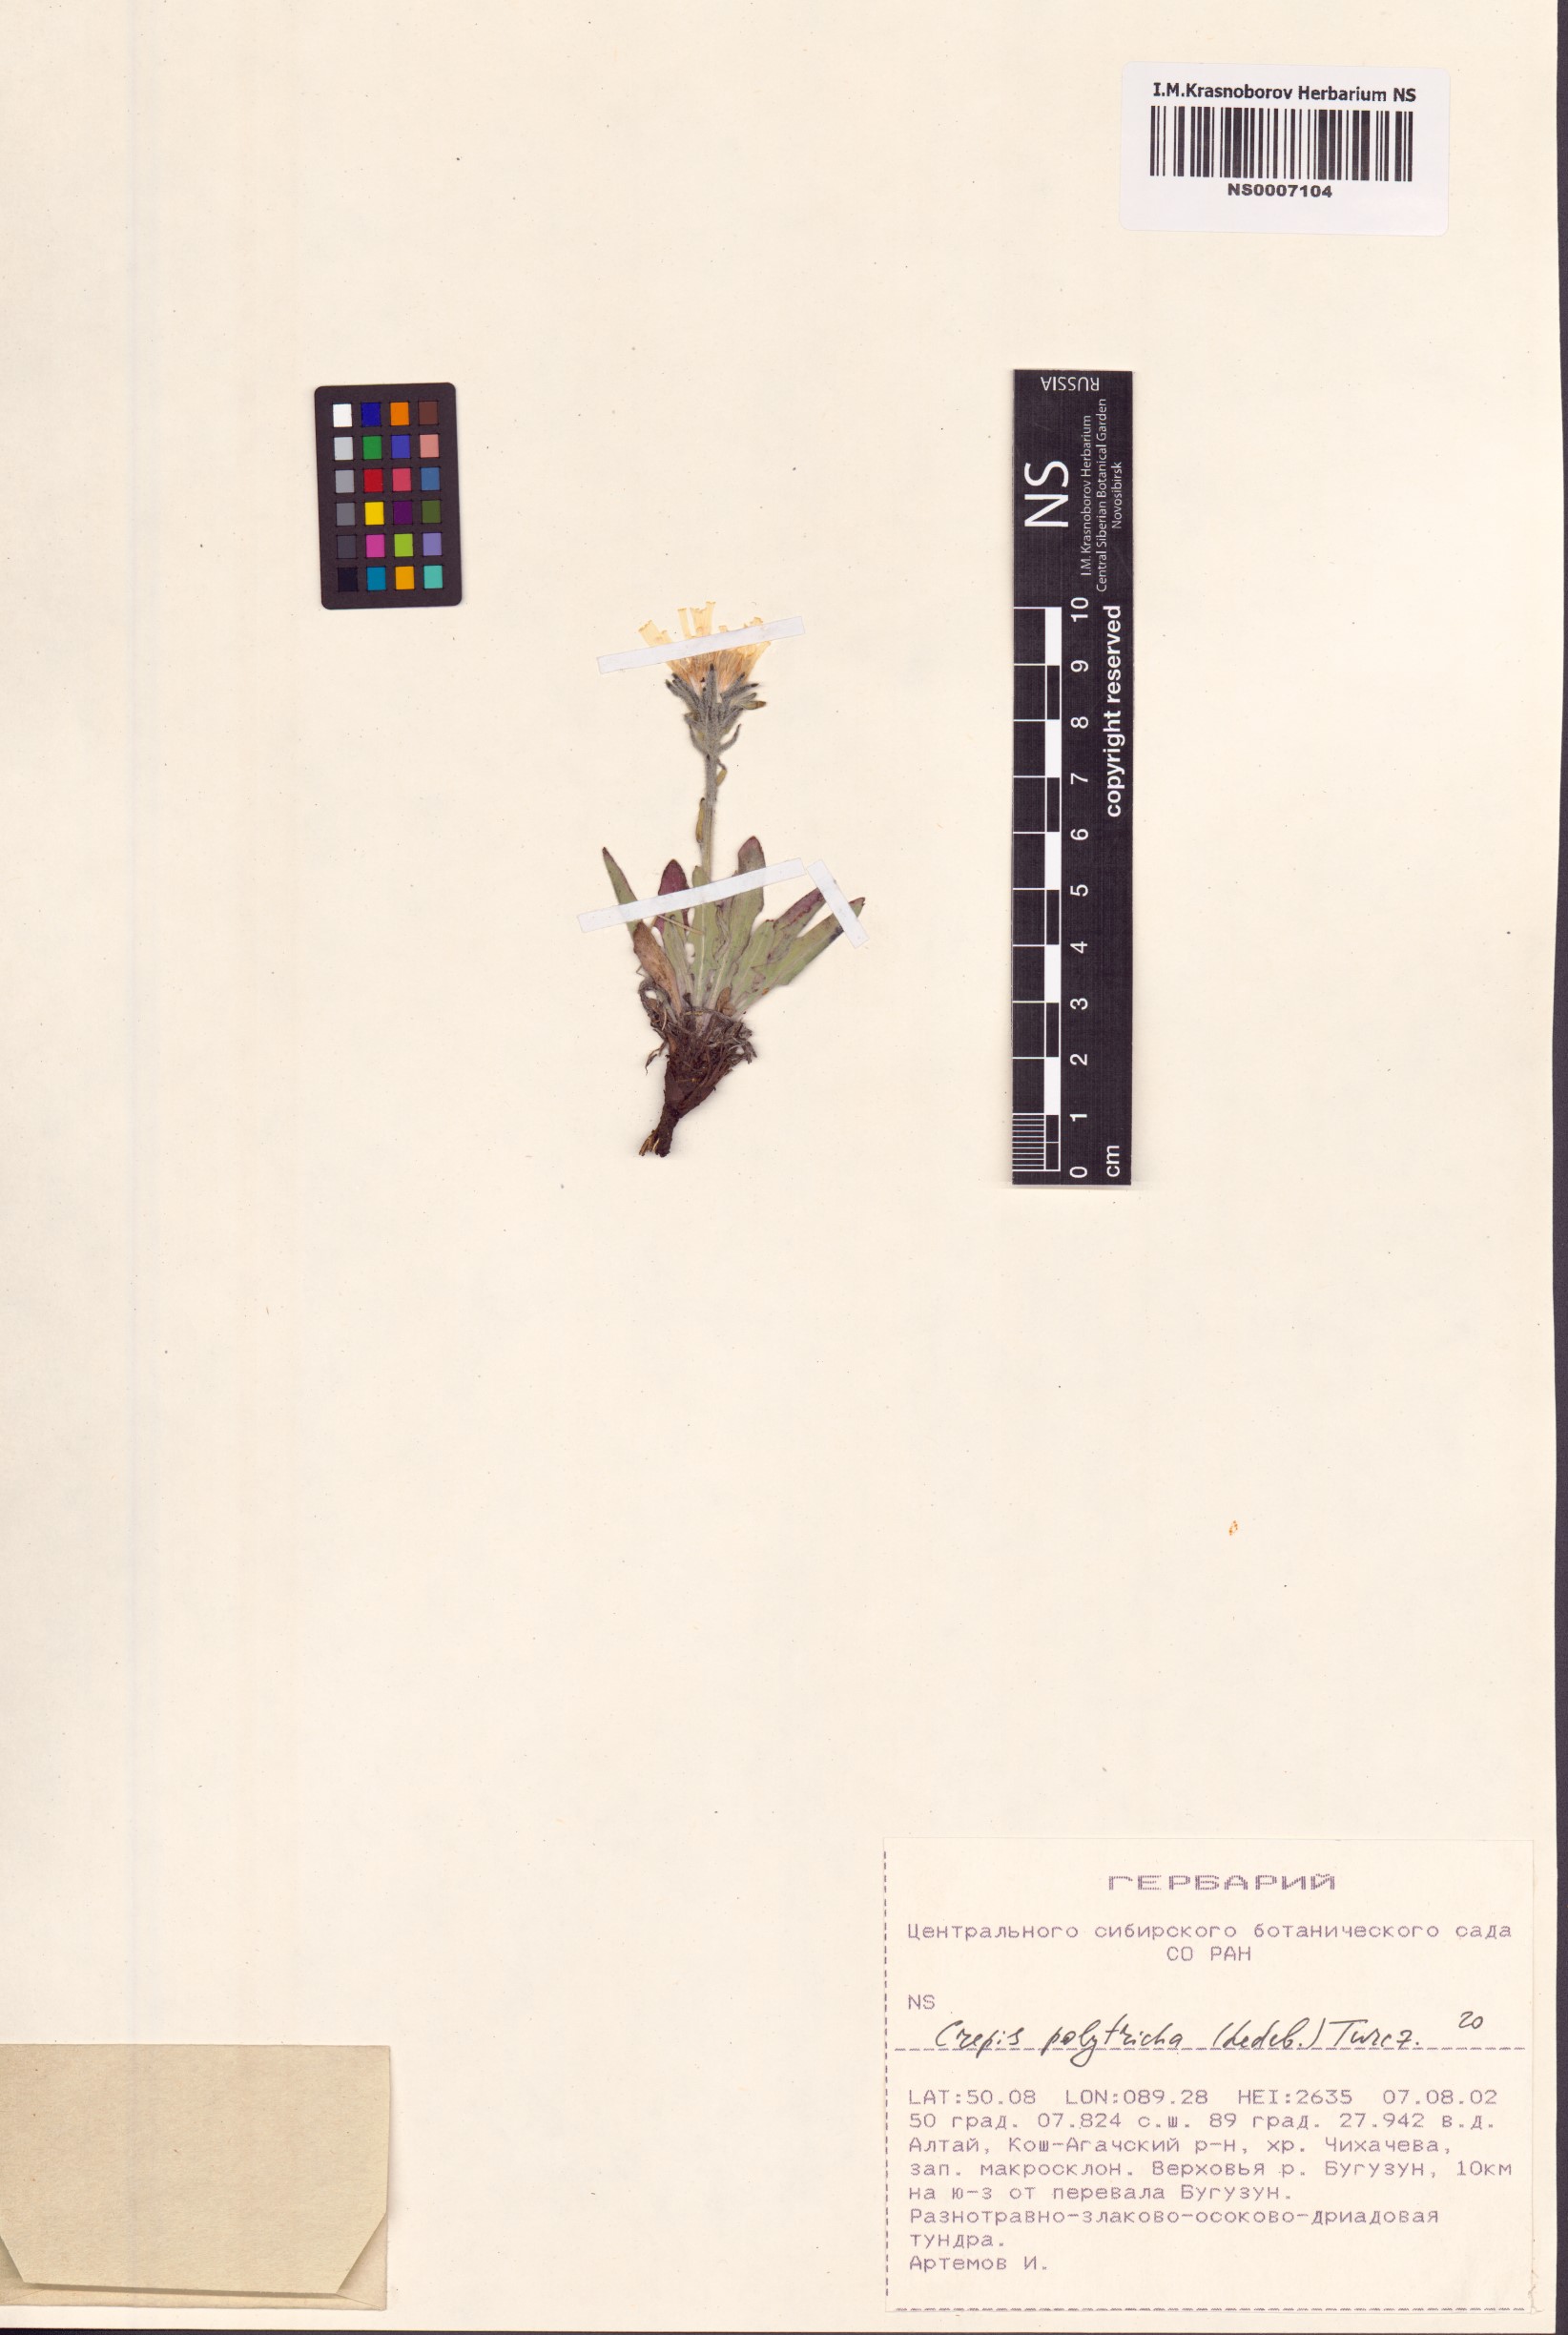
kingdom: Plantae
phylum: Tracheophyta
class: Magnoliopsida
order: Asterales
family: Asteraceae
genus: Crepis
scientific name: Crepis chrysantha
